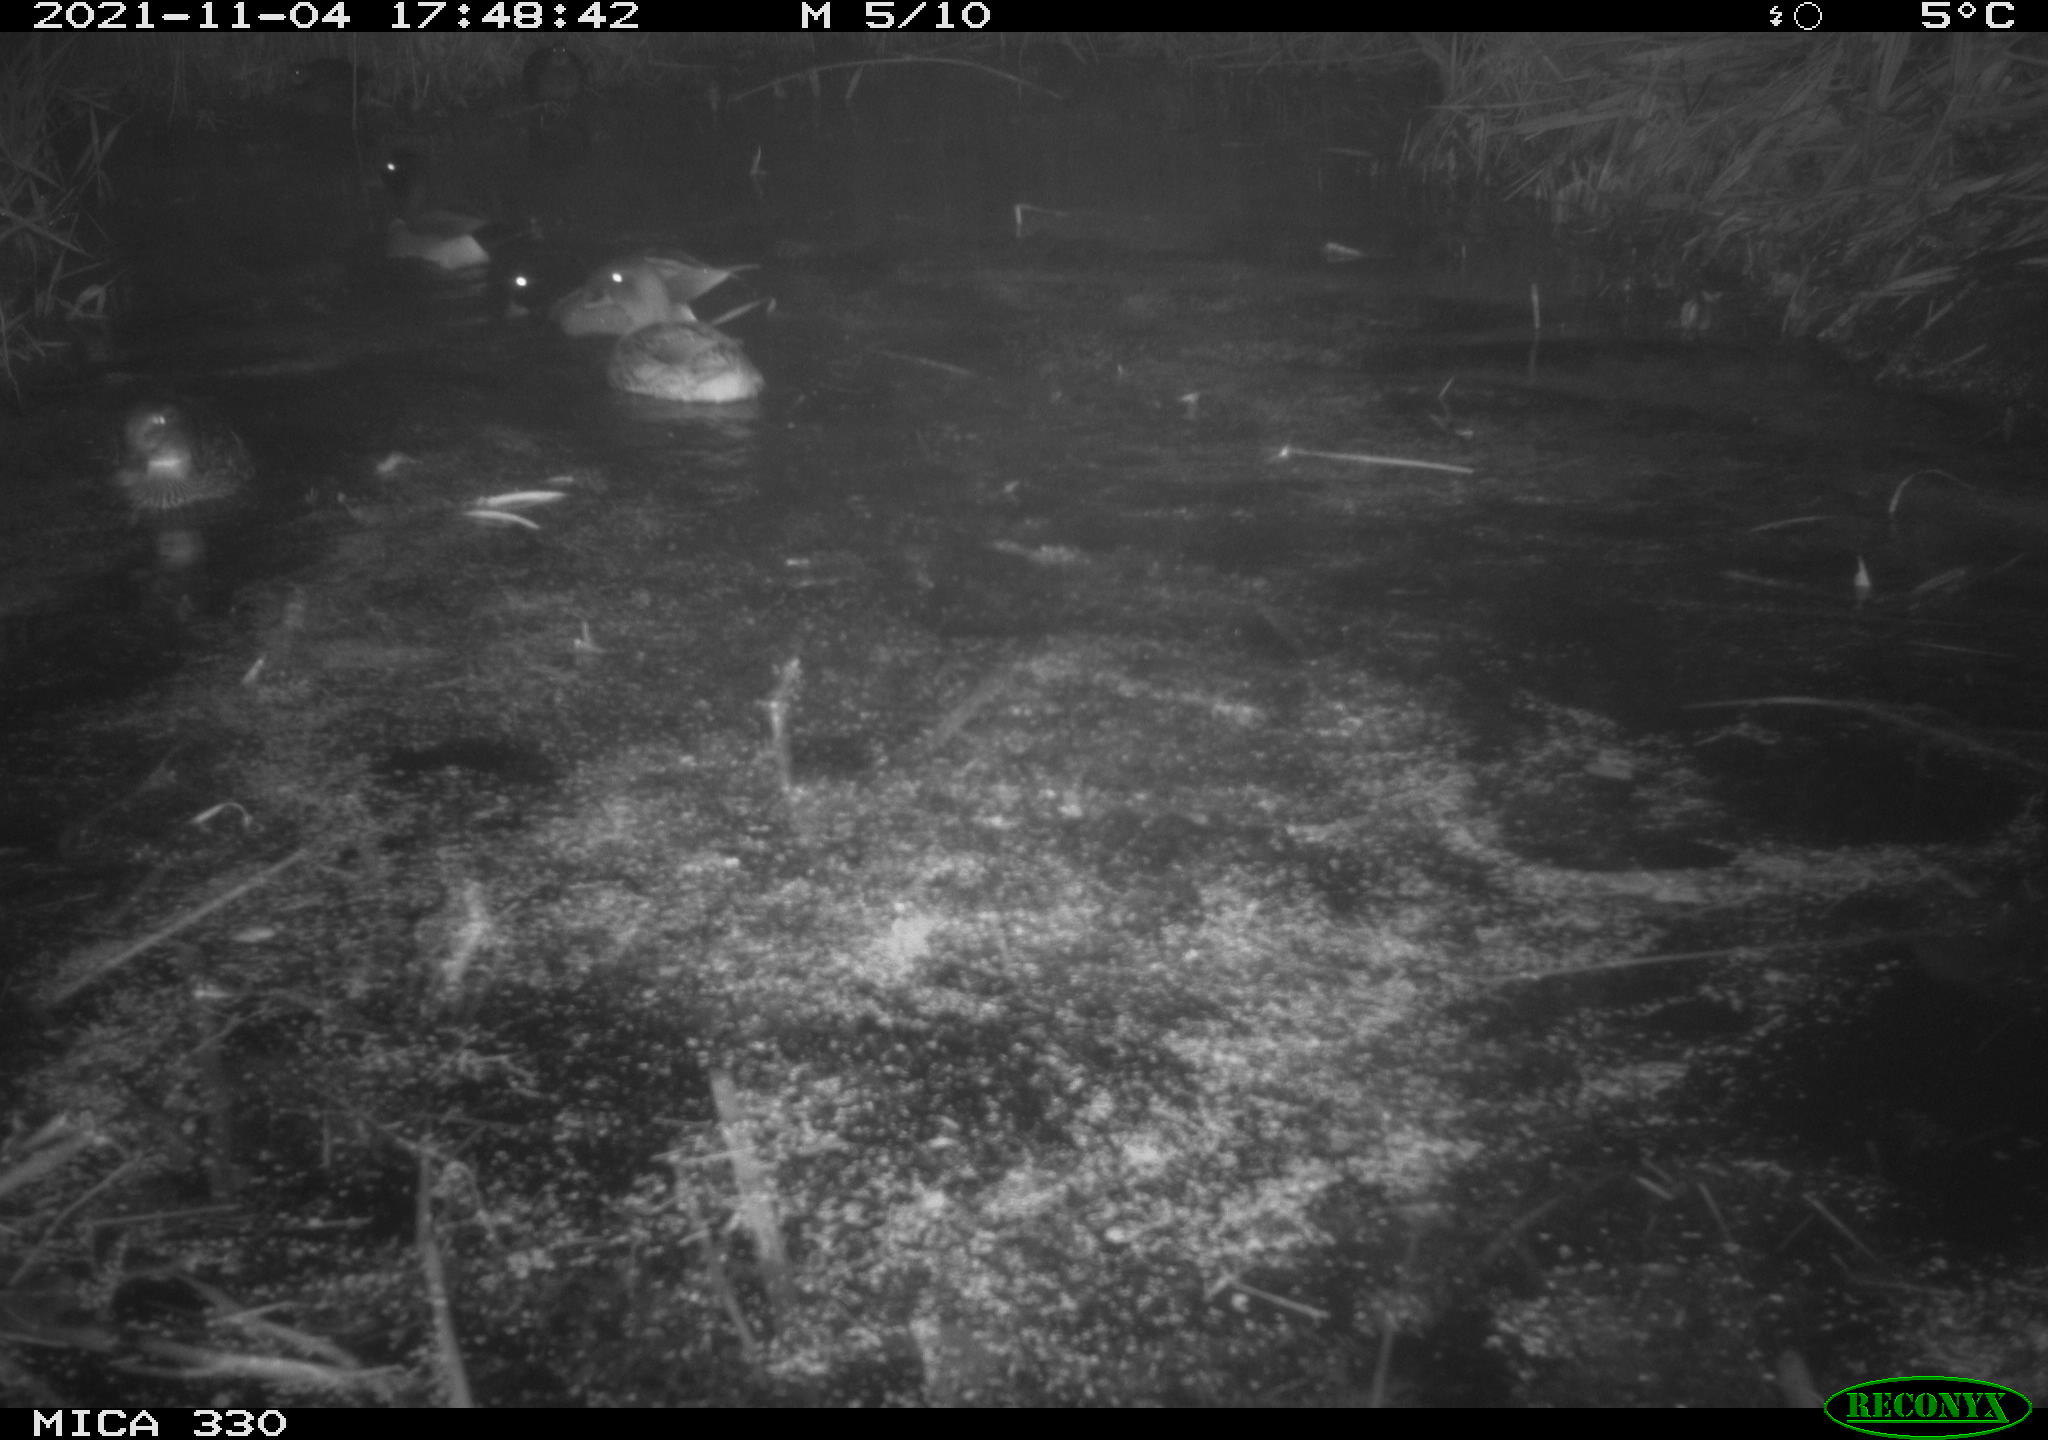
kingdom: Animalia
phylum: Chordata
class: Aves
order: Anseriformes
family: Anatidae
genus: Anas
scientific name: Anas platyrhynchos
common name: Mallard
